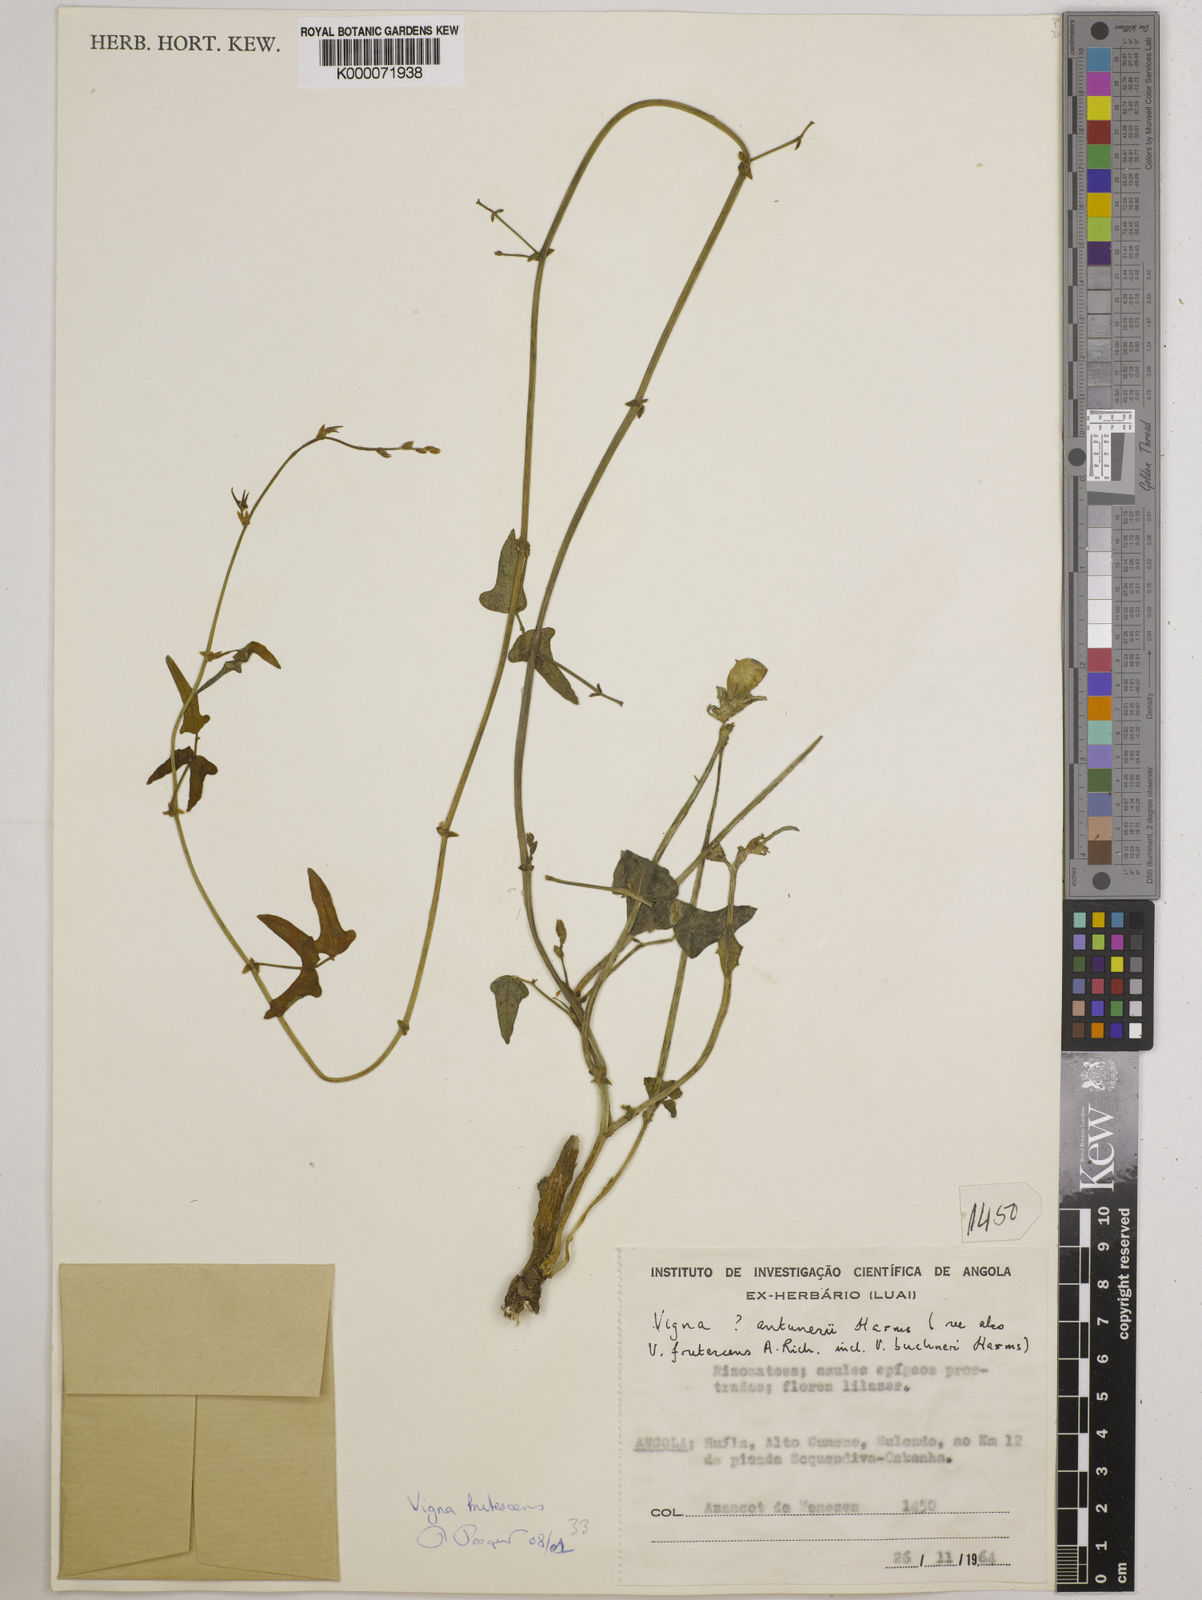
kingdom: Plantae
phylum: Tracheophyta
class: Magnoliopsida
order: Fabales
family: Fabaceae
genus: Vigna
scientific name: Vigna antunesii
